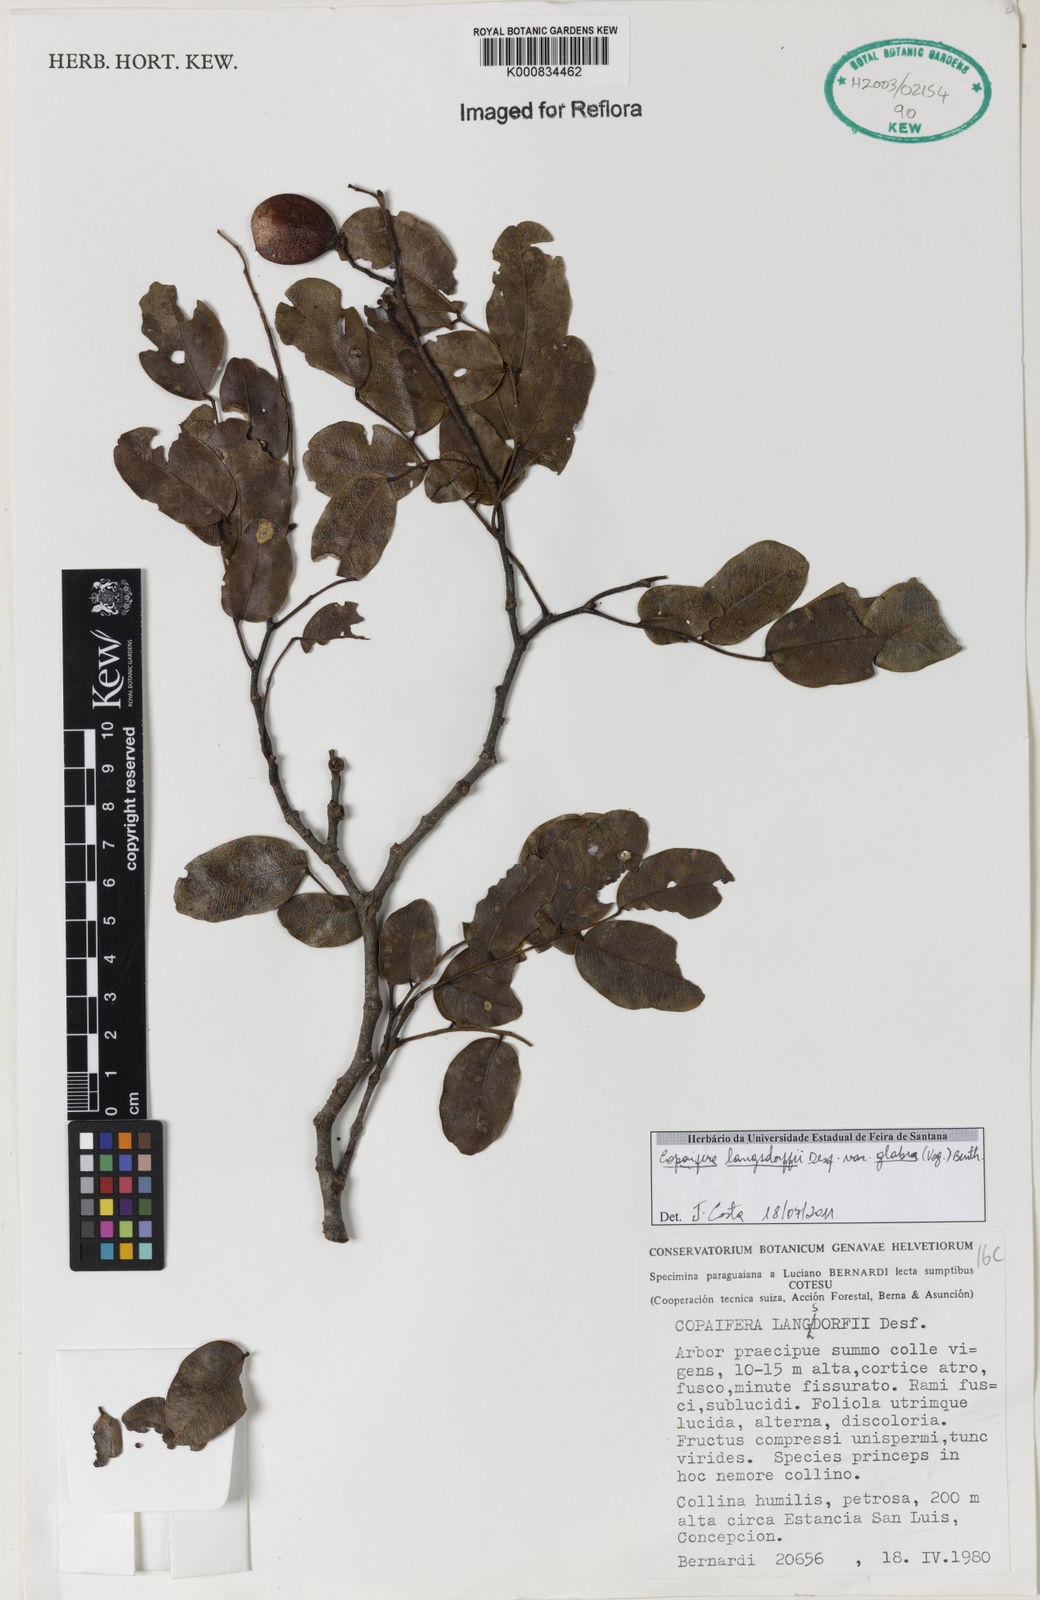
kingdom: Plantae
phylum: Tracheophyta
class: Magnoliopsida
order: Fabales
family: Fabaceae
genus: Copaifera
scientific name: Copaifera langsdorffii
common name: Brazilian diesel tree
